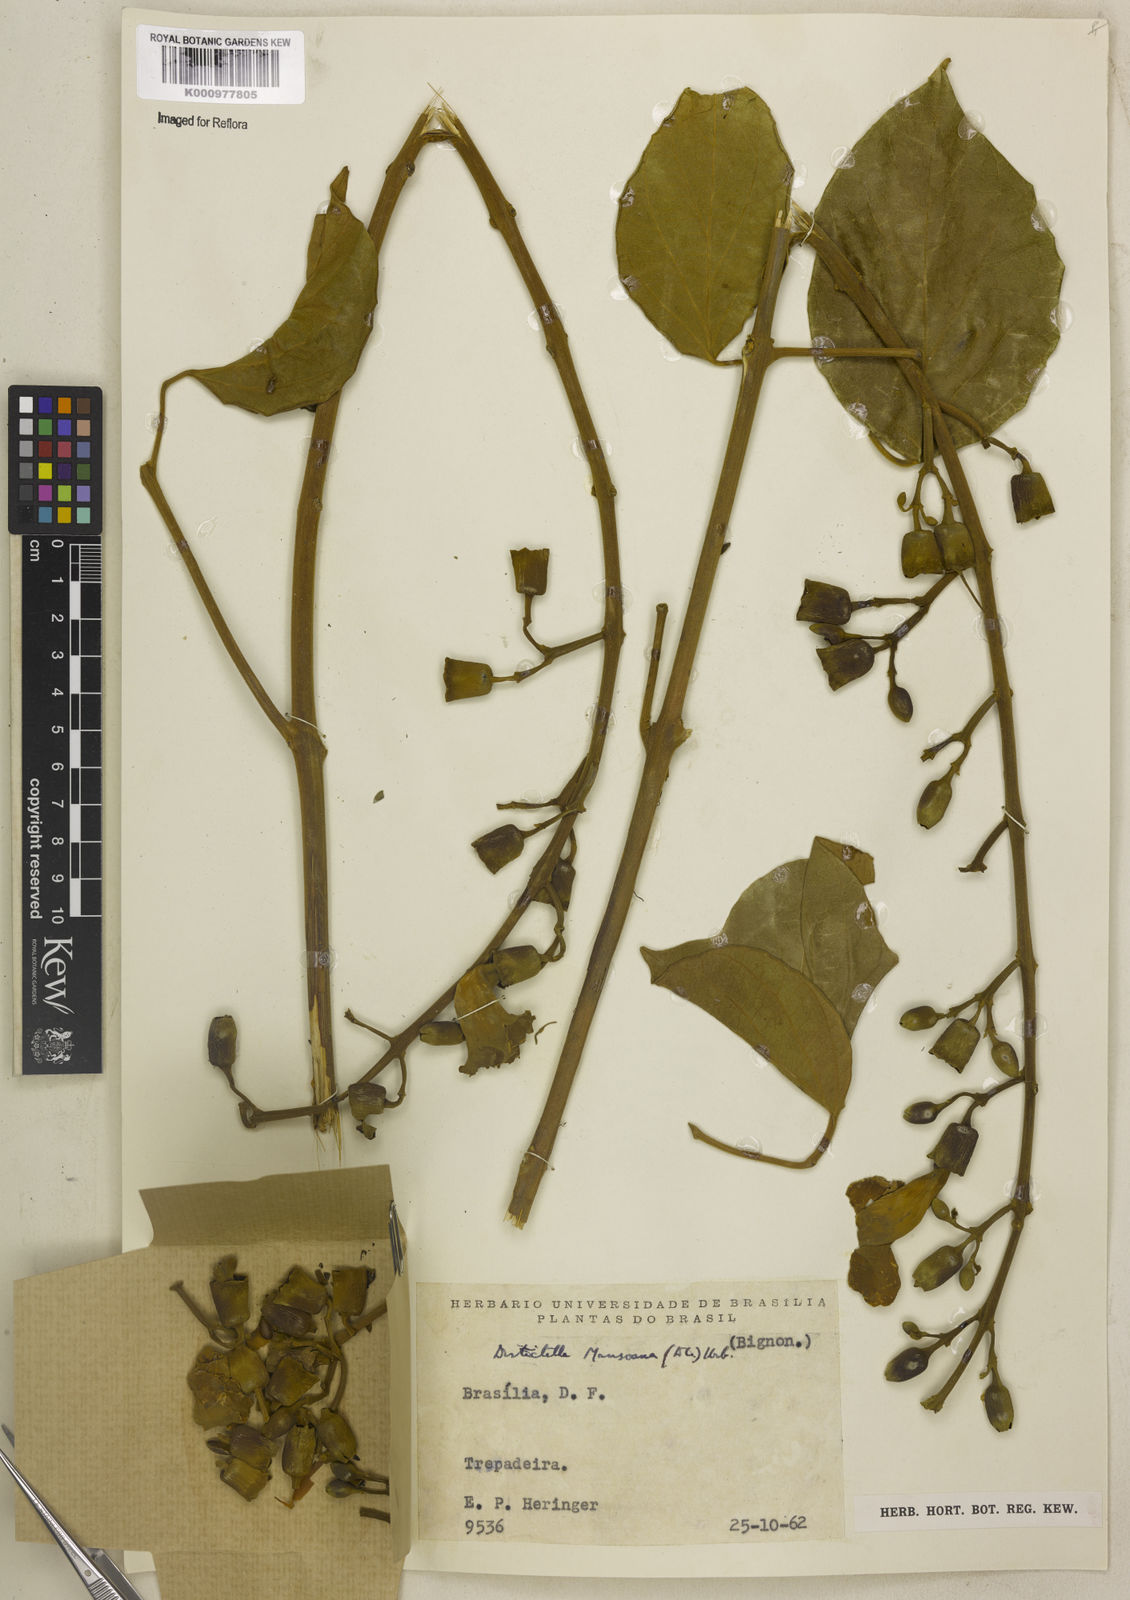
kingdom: Plantae
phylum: Tracheophyta
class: Magnoliopsida
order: Lamiales
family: Bignoniaceae
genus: Amphilophium
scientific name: Amphilophium mansoanum
